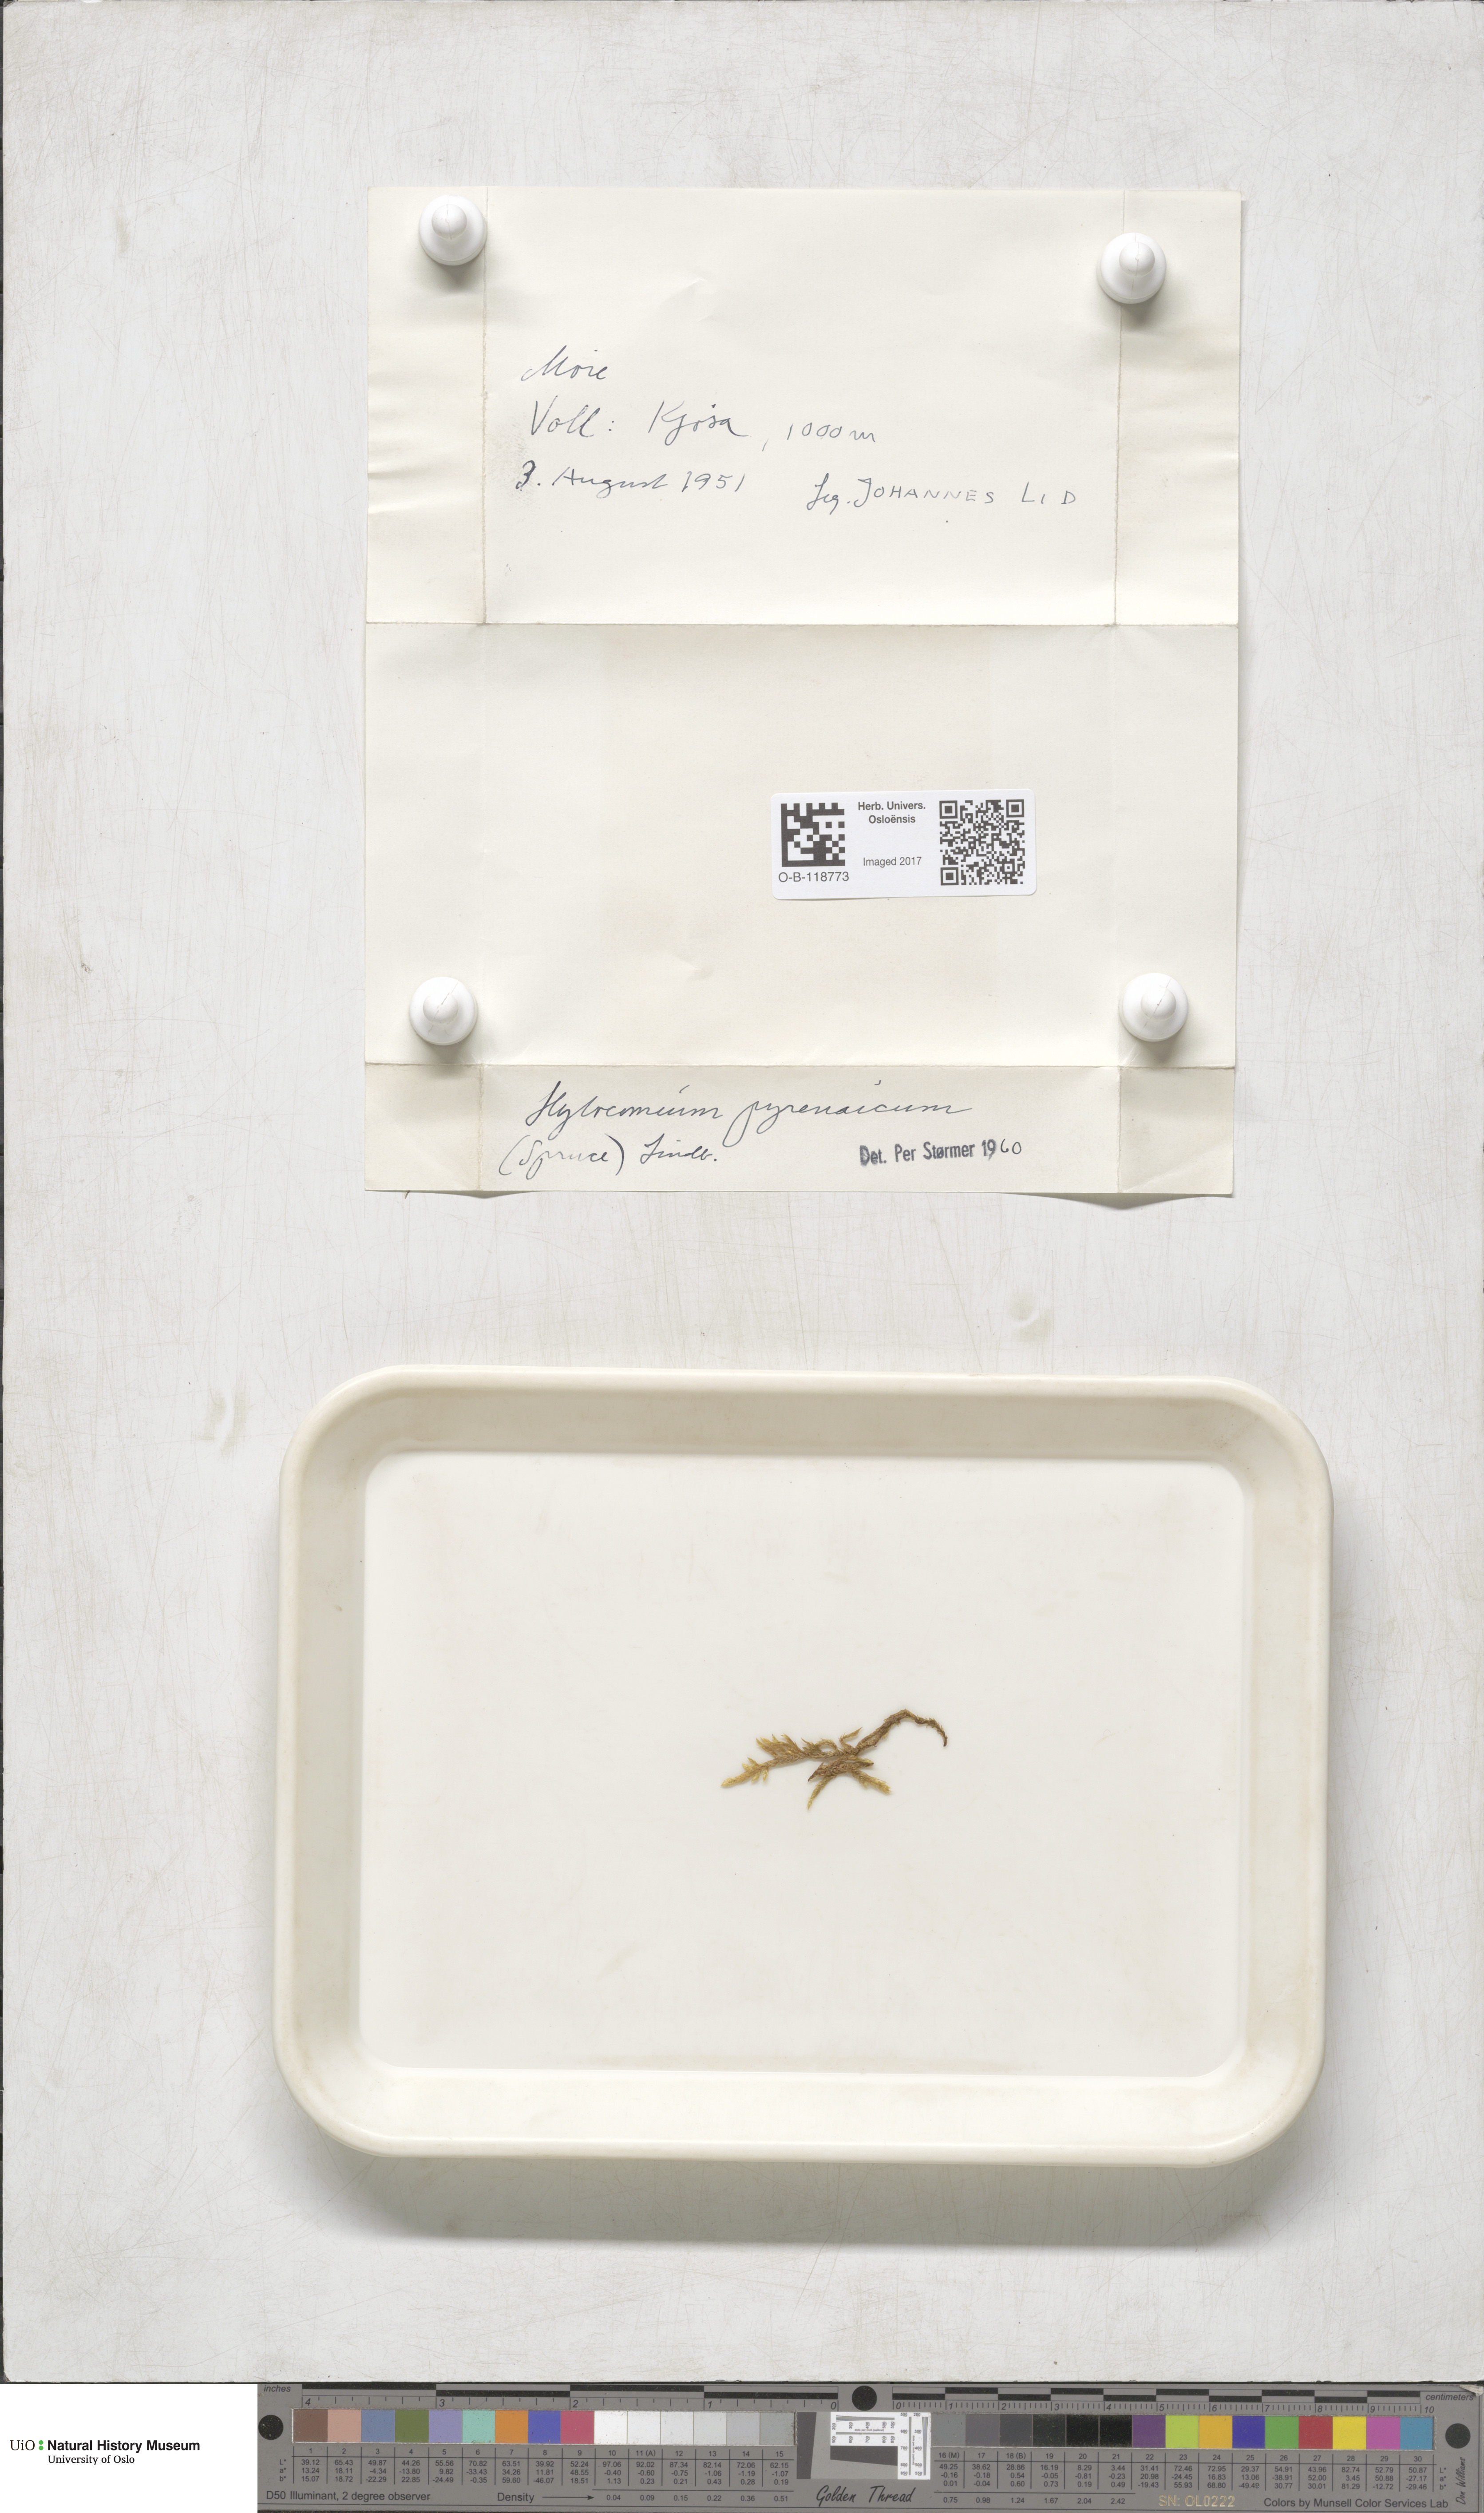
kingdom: Plantae
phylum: Bryophyta
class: Bryopsida
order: Hypnales
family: Hylocomiaceae
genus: Hylocomiastrum
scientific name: Hylocomiastrum pyrenaicum
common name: Oake s wood moss
